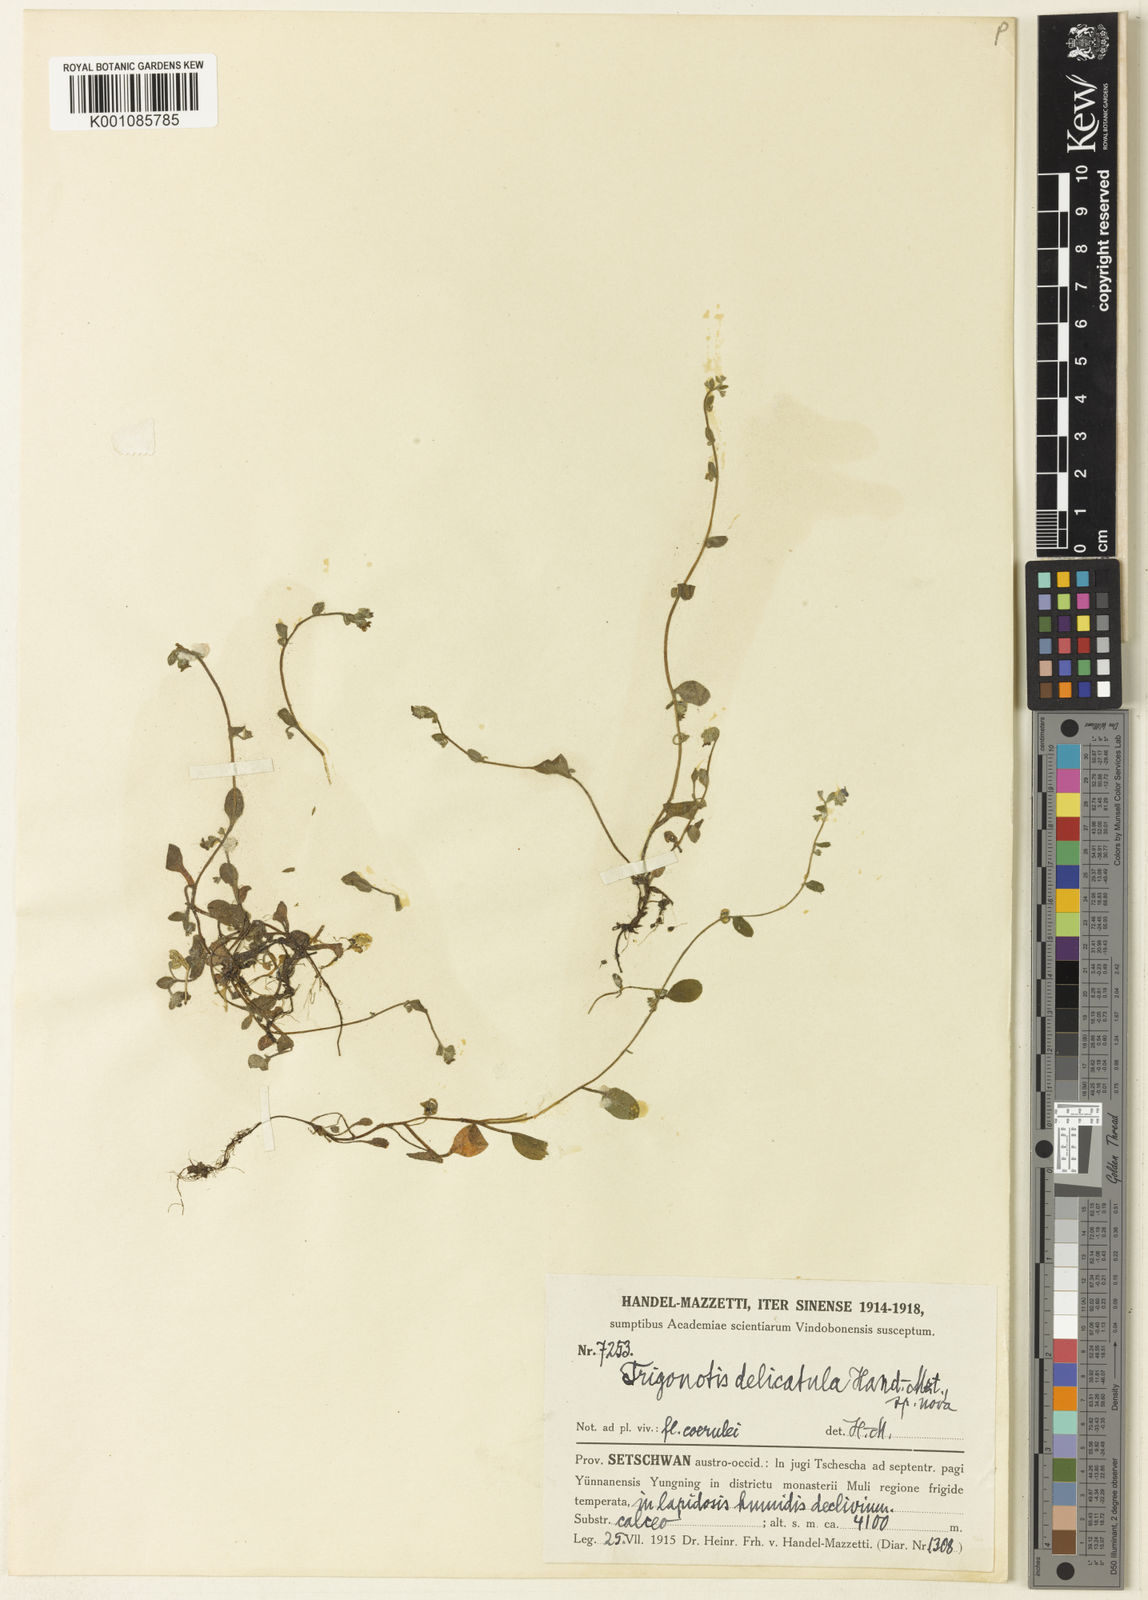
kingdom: Plantae
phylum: Tracheophyta
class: Magnoliopsida
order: Boraginales
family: Boraginaceae
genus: Trigonotis
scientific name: Trigonotis delicatula
